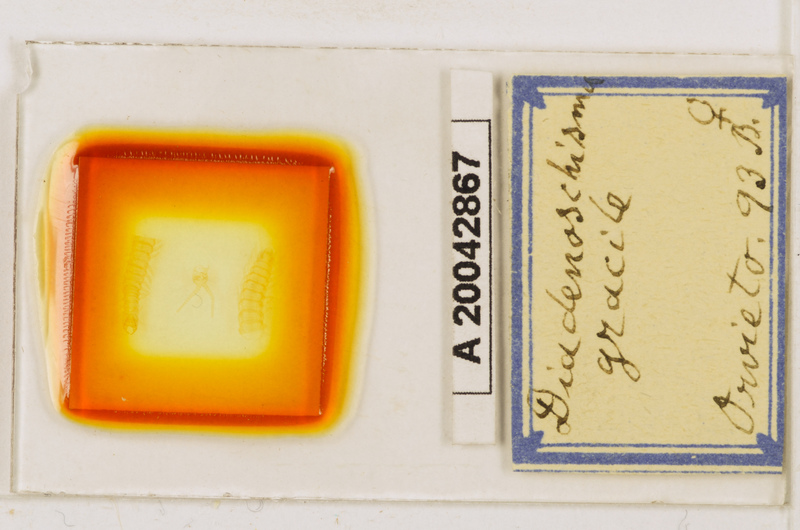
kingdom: Animalia
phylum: Arthropoda
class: Chilopoda
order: Geophilomorpha
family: Himantariidae
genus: Stigmatogaster
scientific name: Stigmatogaster
